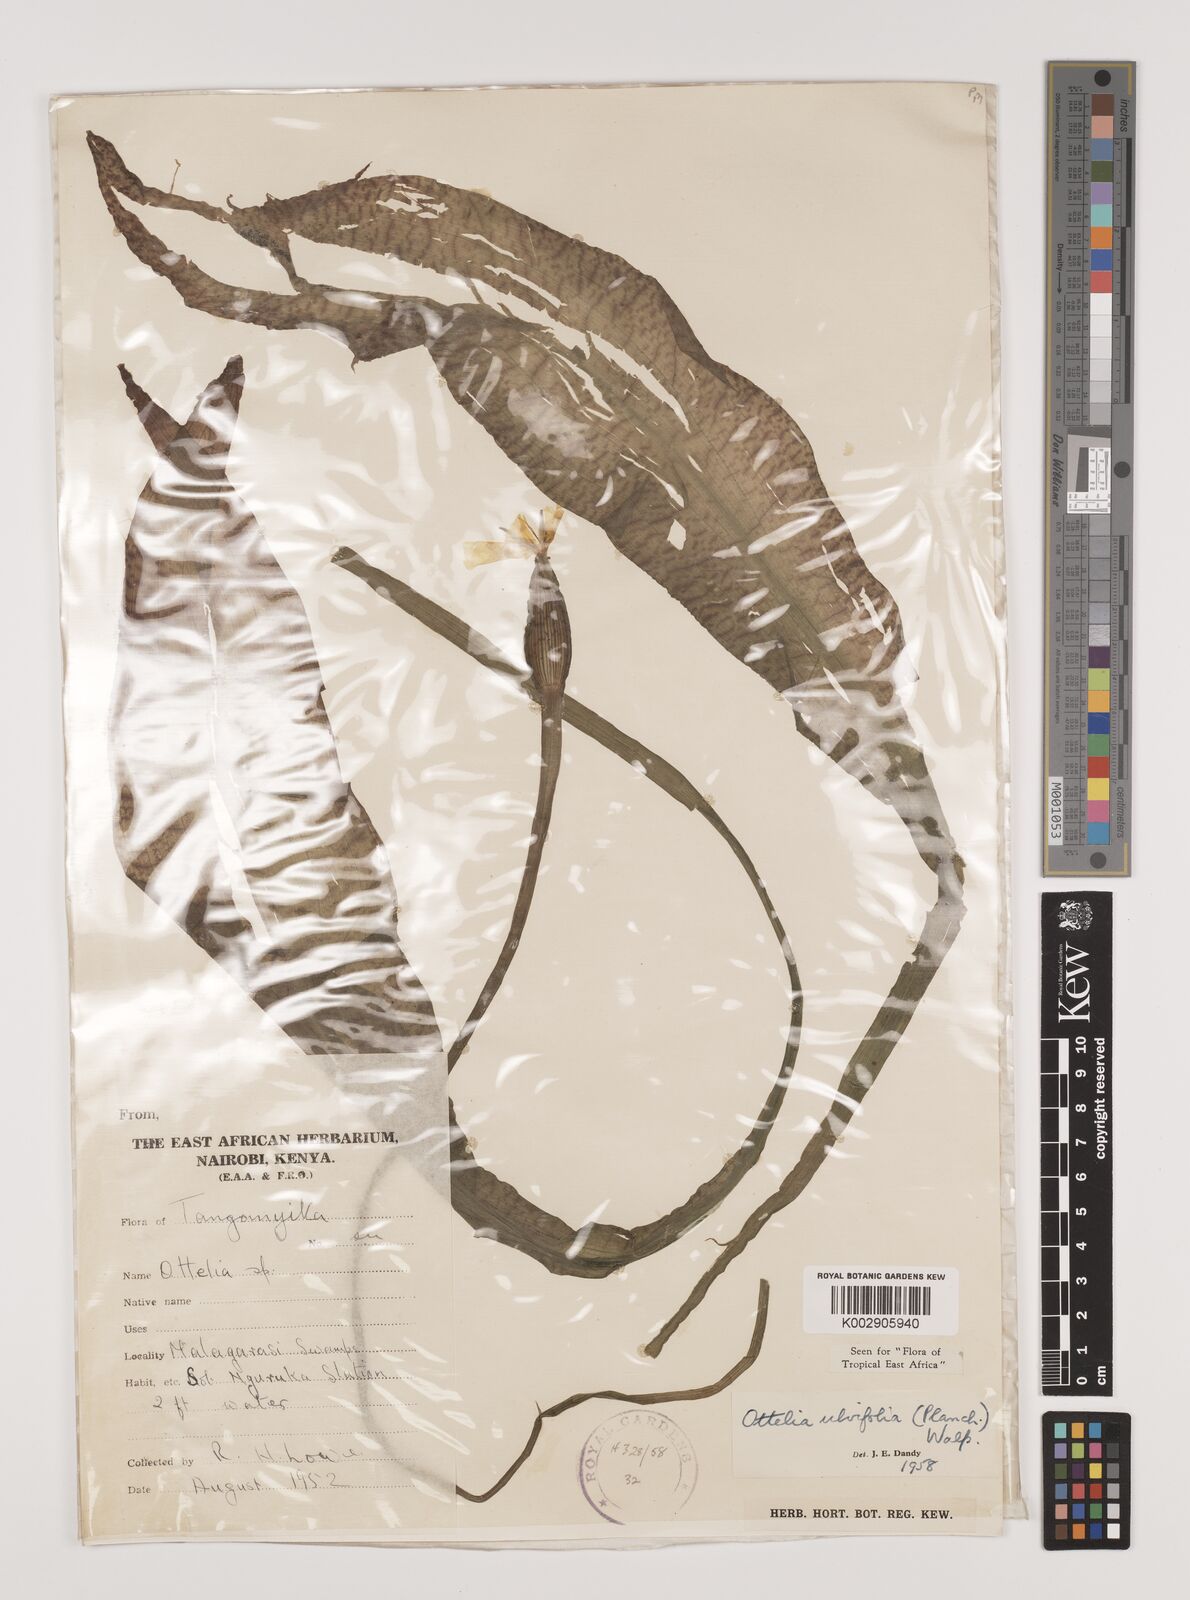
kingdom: Plantae
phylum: Tracheophyta
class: Liliopsida
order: Alismatales
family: Hydrocharitaceae
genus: Ottelia
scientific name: Ottelia ulvifolia
